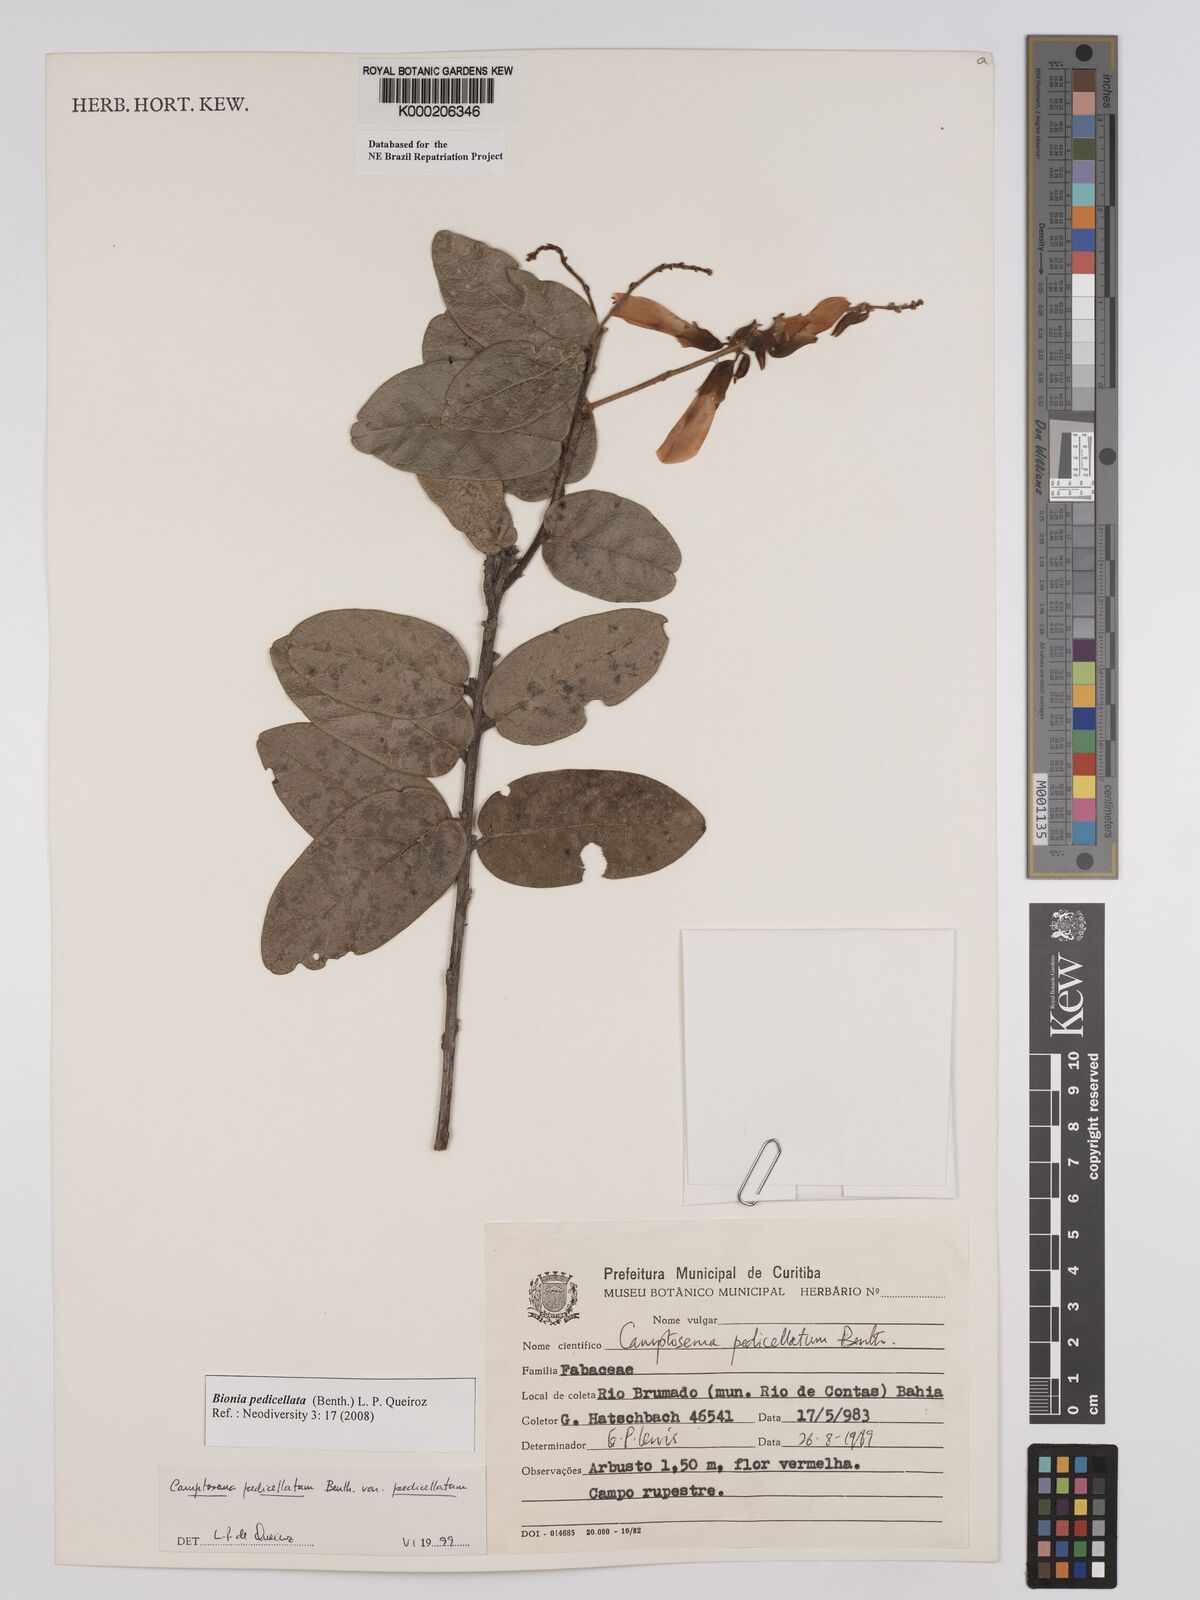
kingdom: Plantae
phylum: Tracheophyta
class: Magnoliopsida
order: Fabales
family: Fabaceae
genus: Camptosema
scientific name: Camptosema pedicellatum
